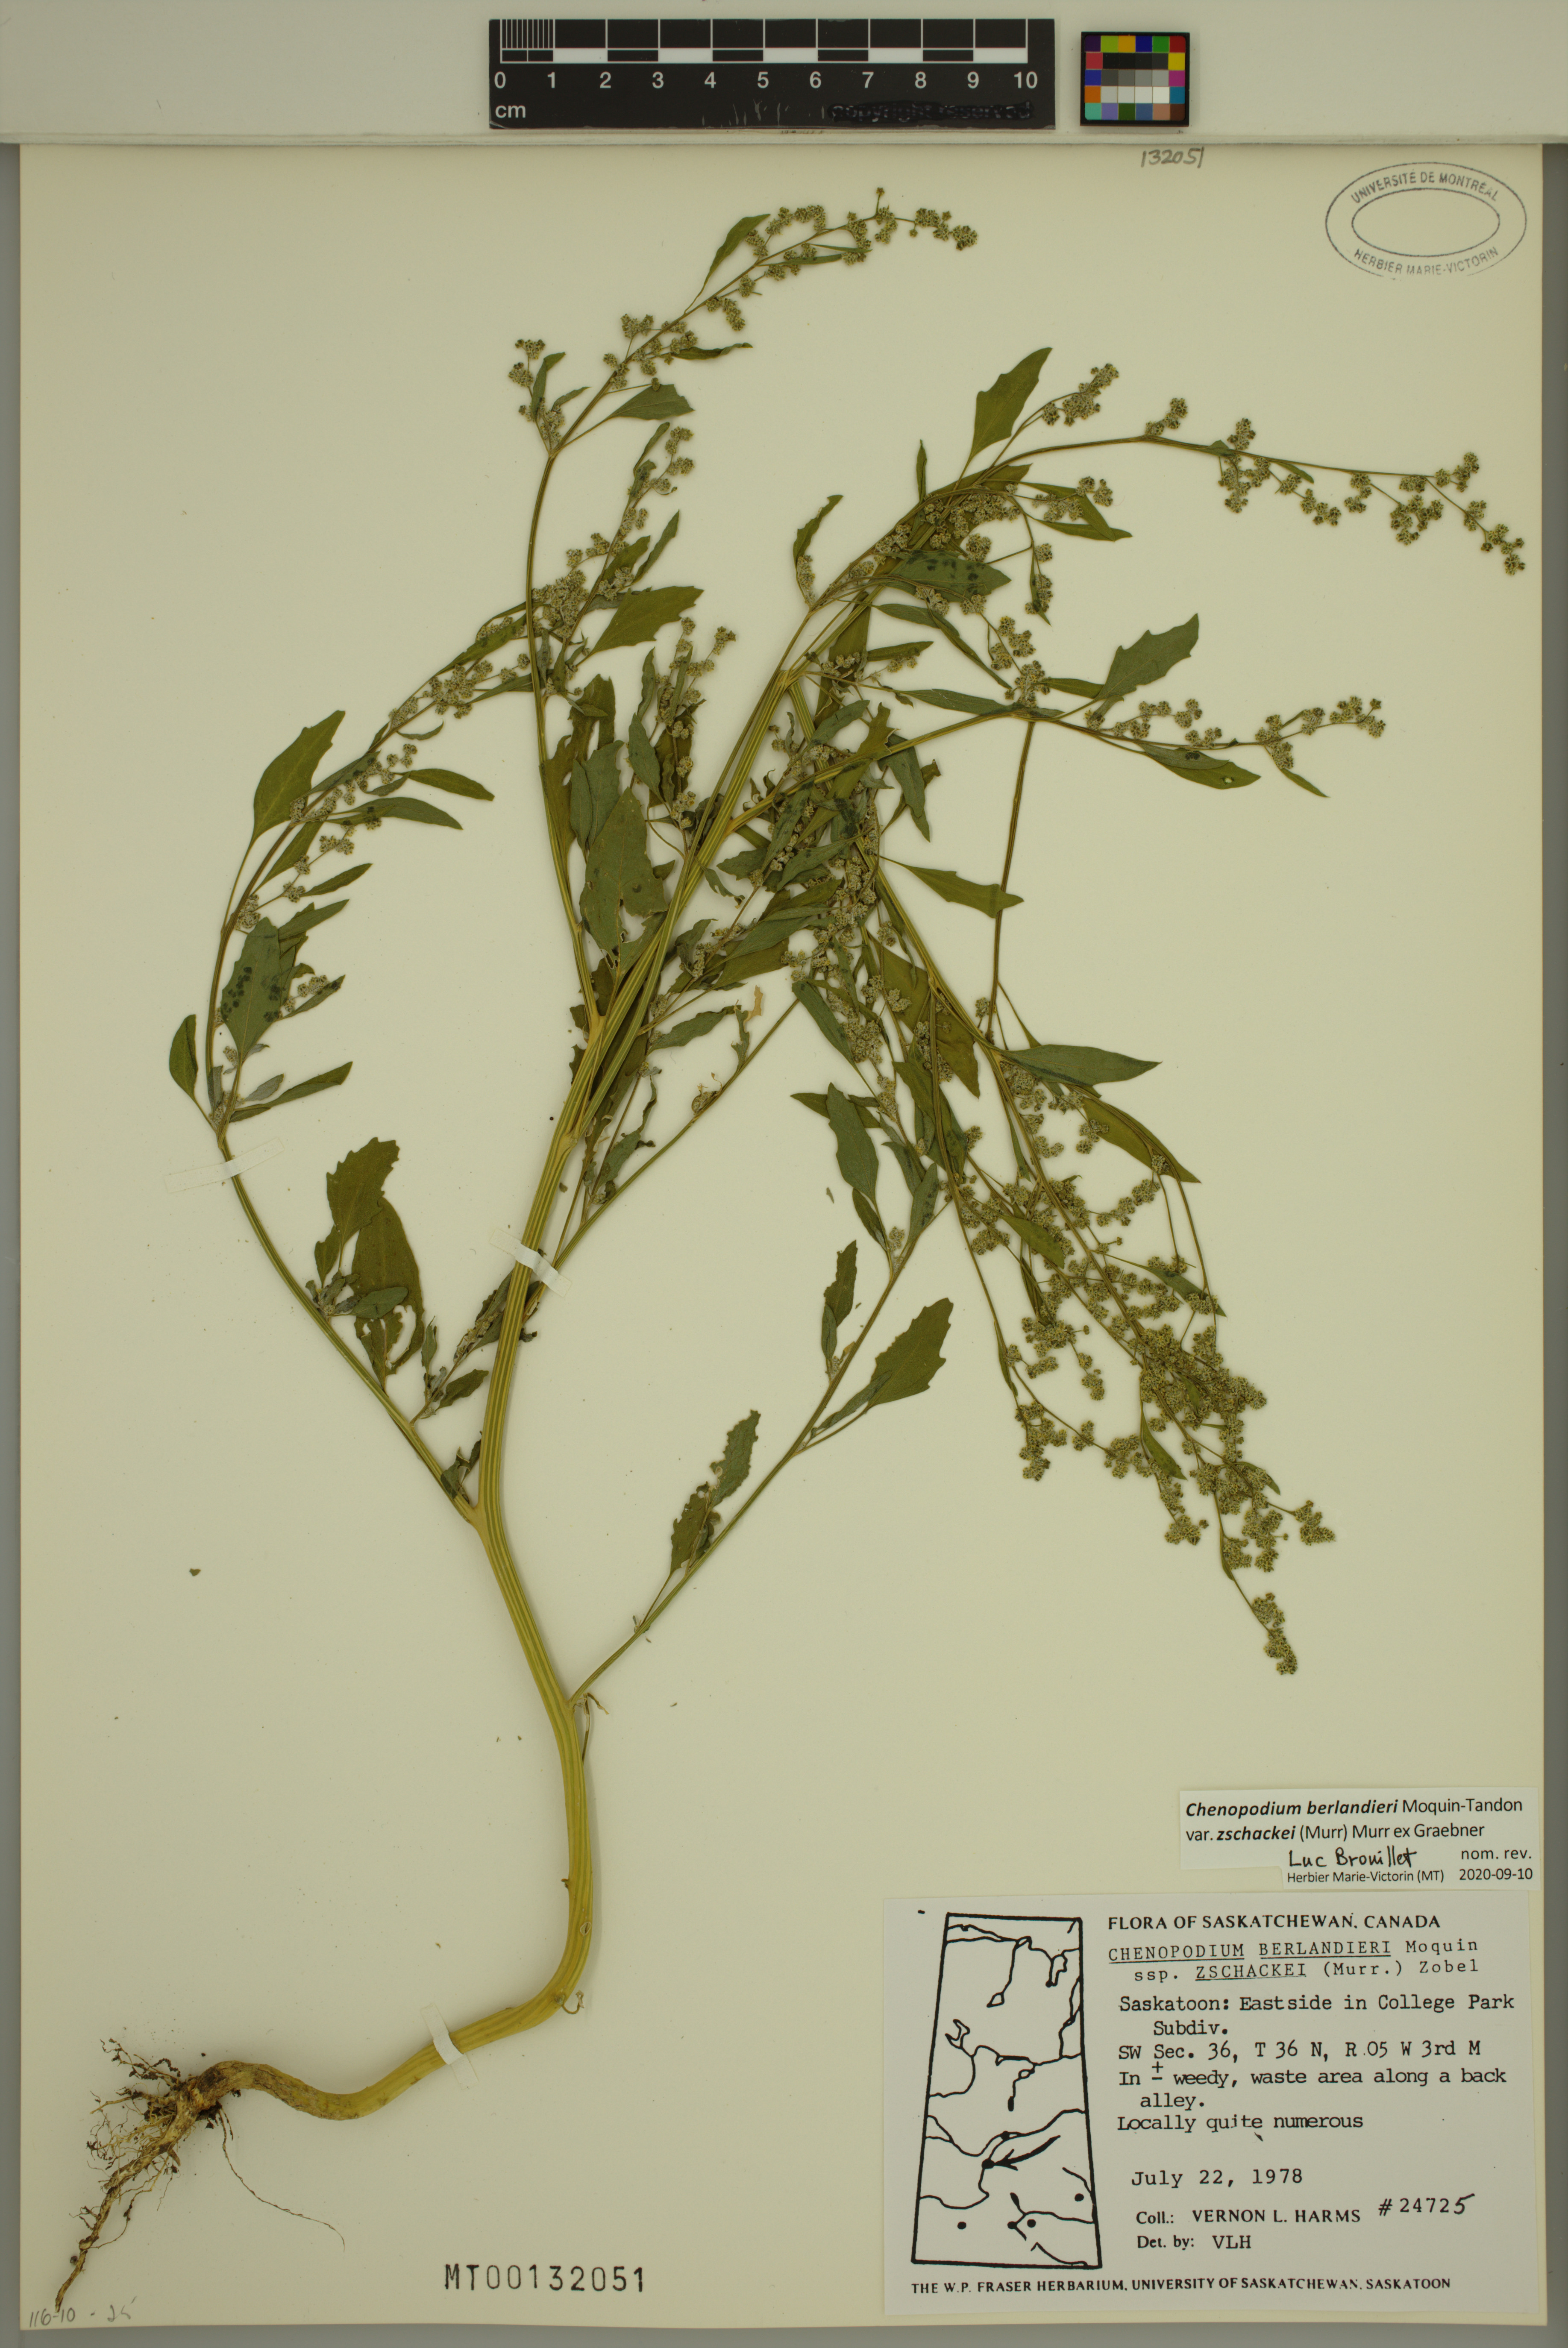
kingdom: Plantae
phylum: Tracheophyta
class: Magnoliopsida
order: Caryophyllales
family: Amaranthaceae
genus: Chenopodium
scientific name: Chenopodium berlandieri
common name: Pit-seed goosefoot
